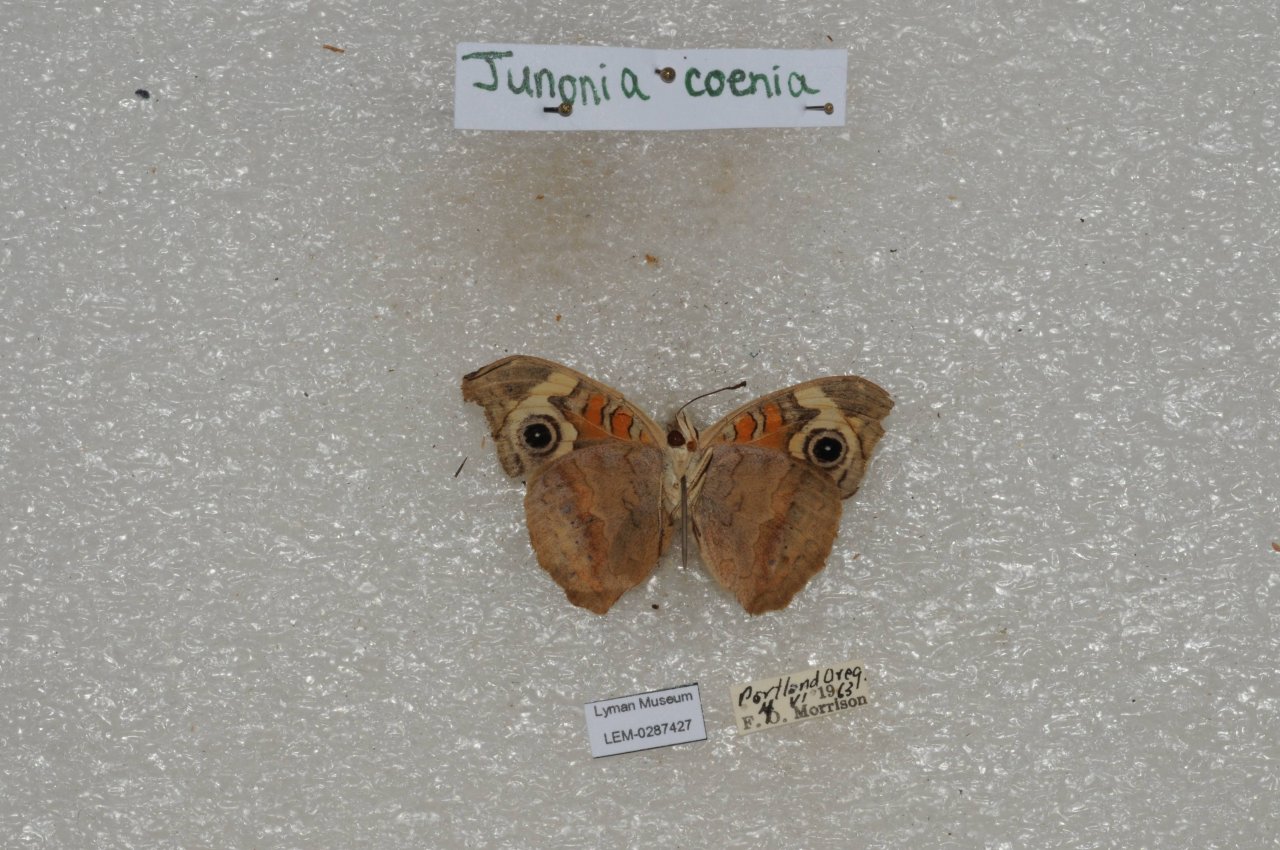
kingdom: Animalia
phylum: Arthropoda
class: Insecta
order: Lepidoptera
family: Nymphalidae
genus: Junonia
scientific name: Junonia coenia
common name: Common Buckeye
